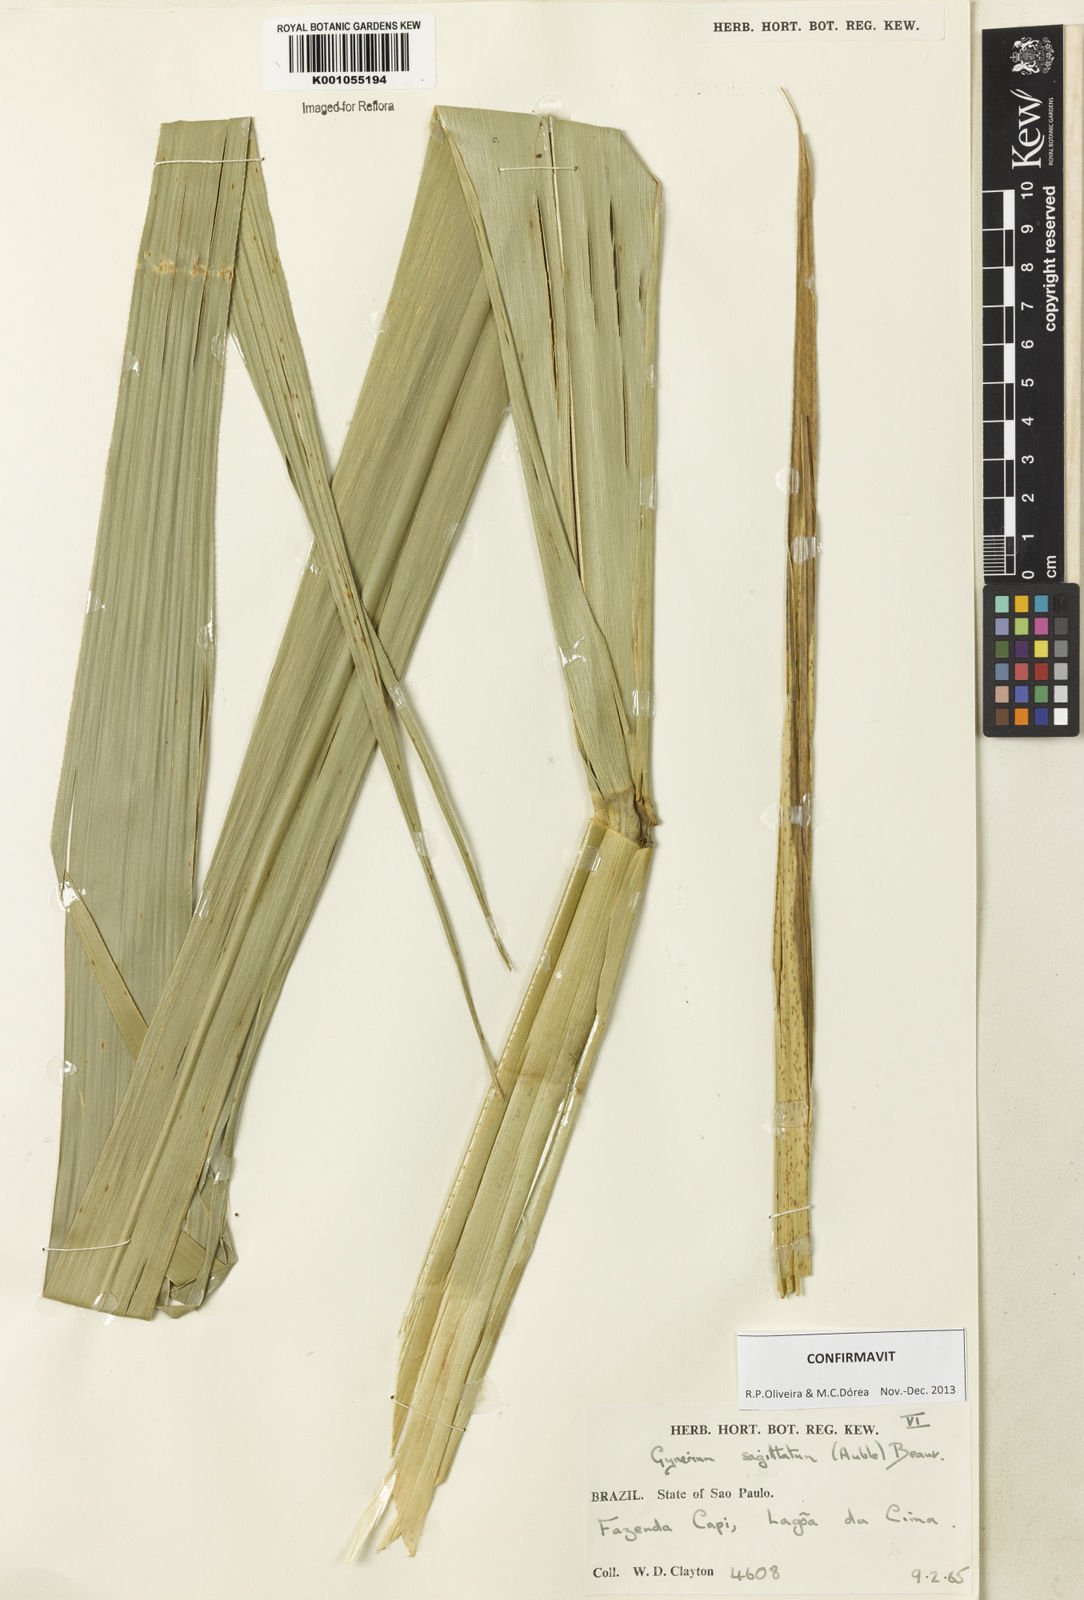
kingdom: Plantae
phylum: Tracheophyta
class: Liliopsida
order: Poales
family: Poaceae
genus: Gynerium
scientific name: Gynerium sagittatum
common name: Wild cane
